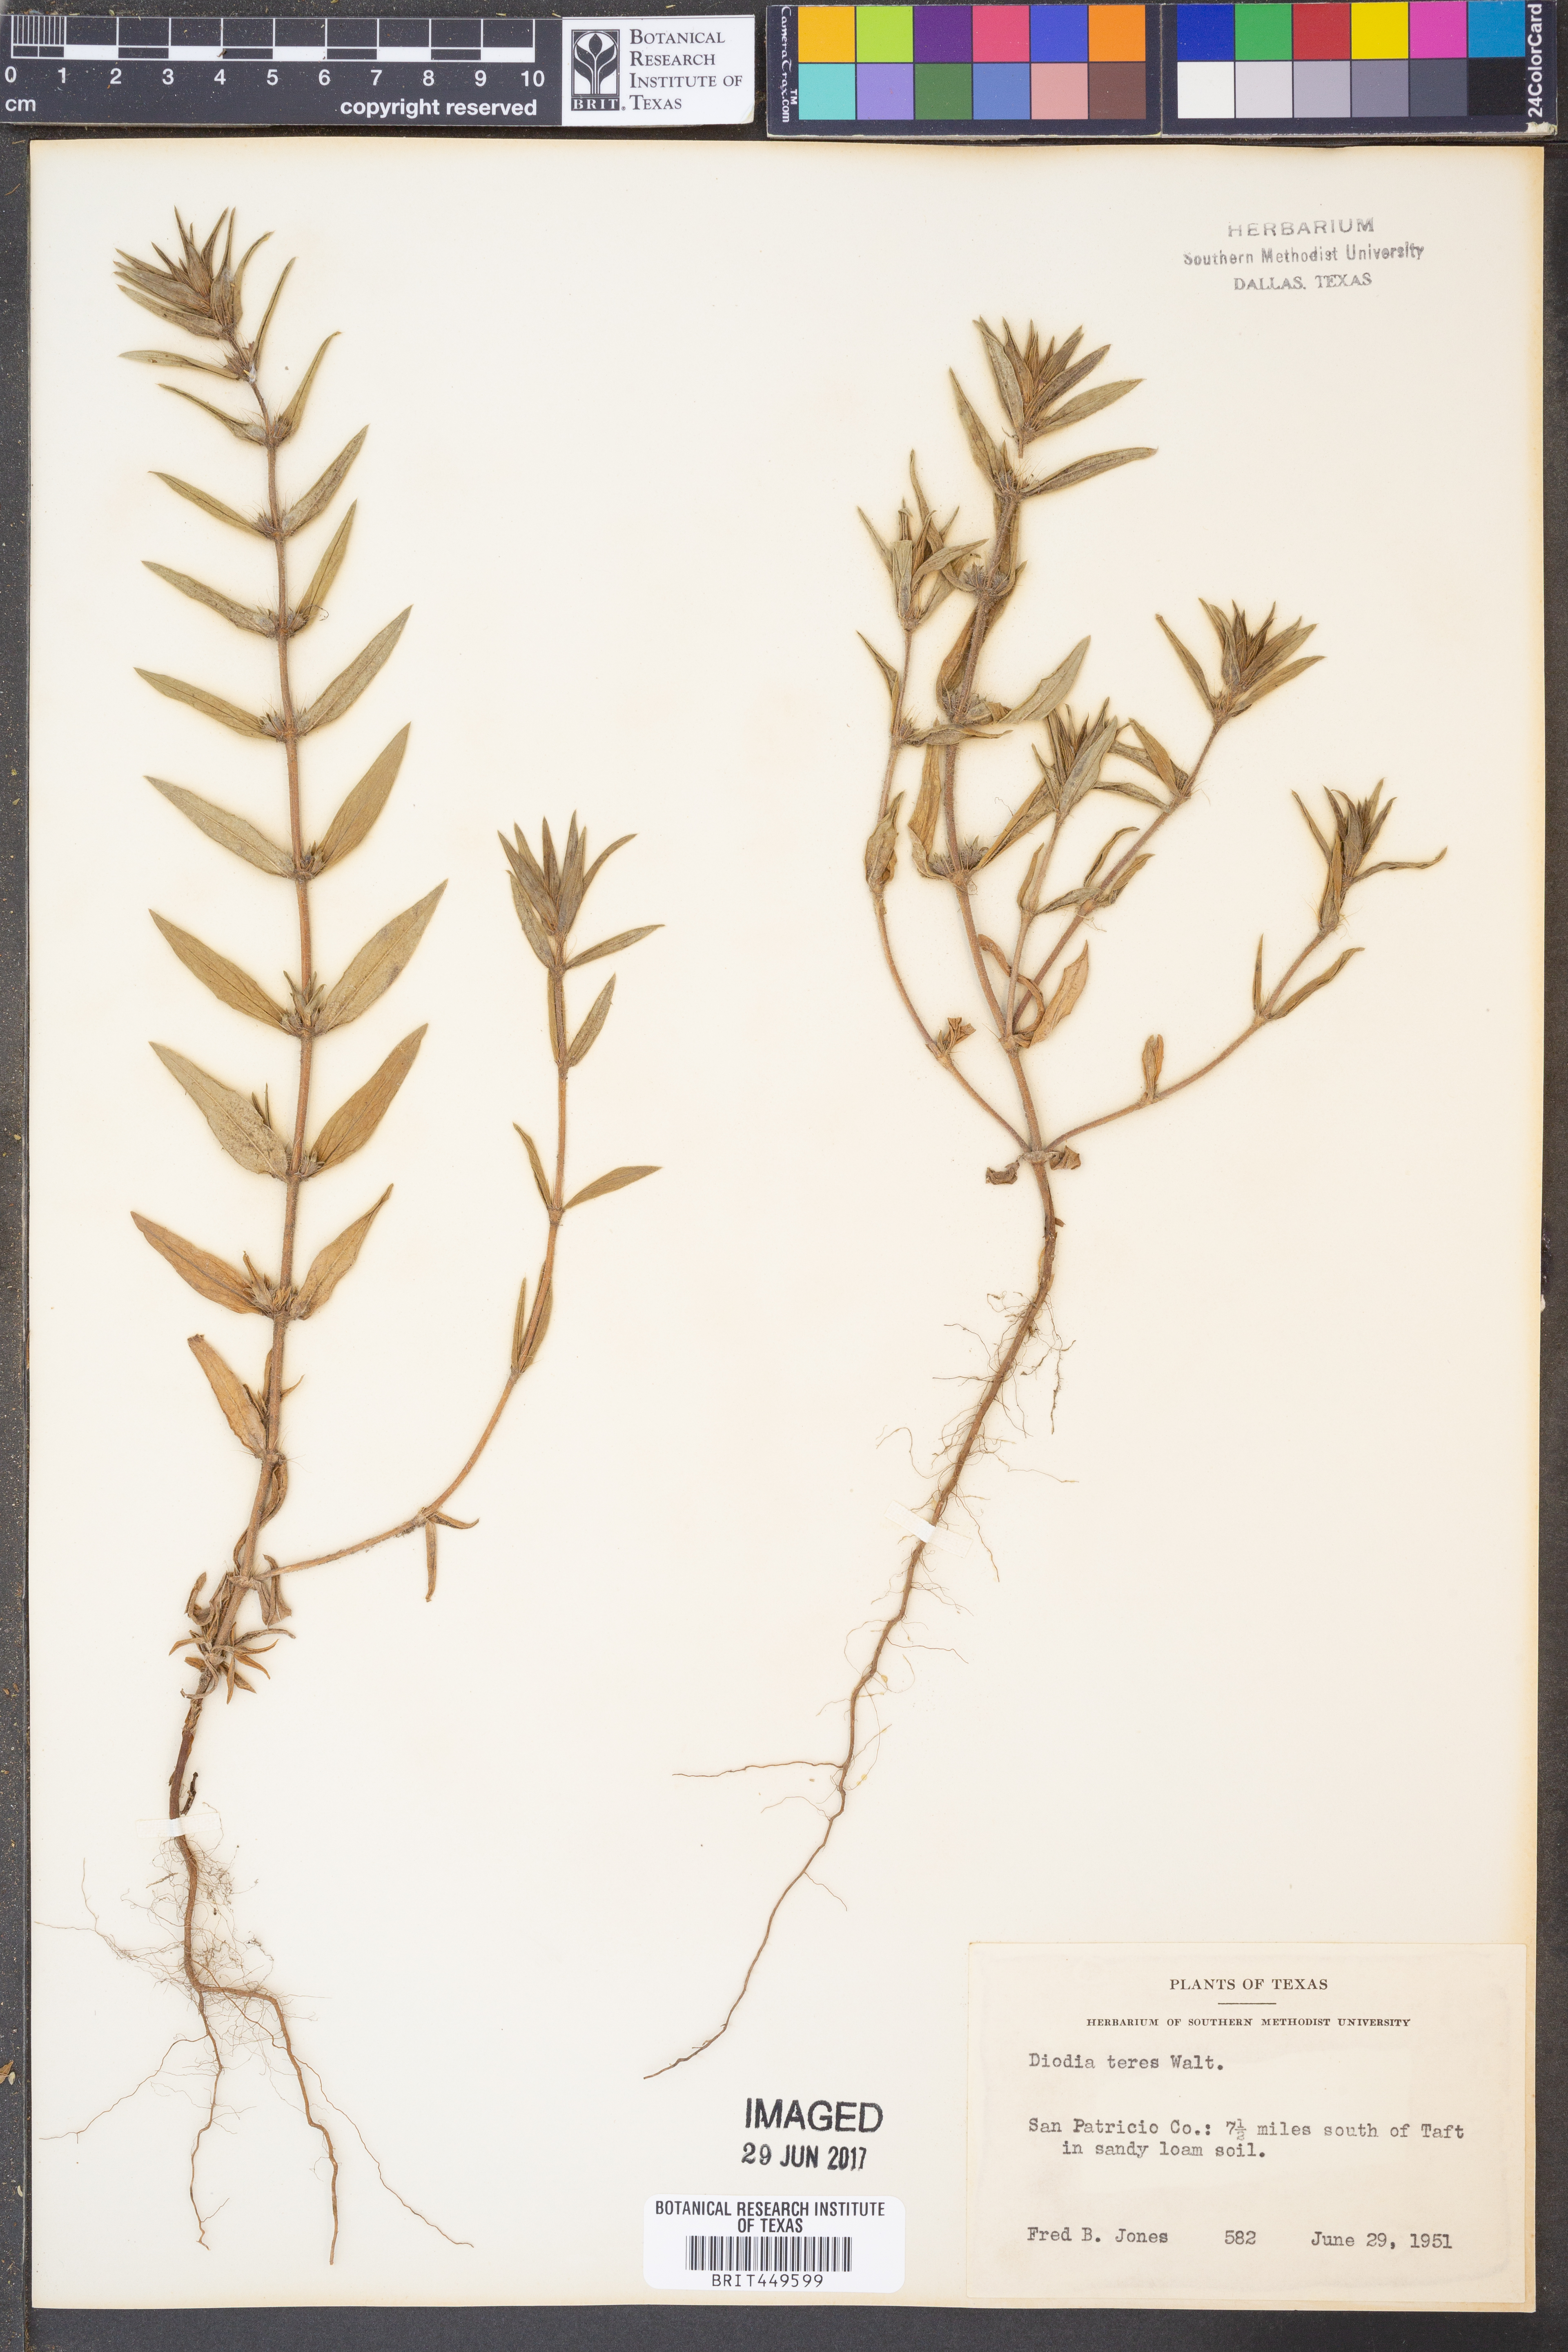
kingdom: Plantae
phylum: Tracheophyta
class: Magnoliopsida
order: Gentianales
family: Rubiaceae
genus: Hexasepalum
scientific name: Hexasepalum teres
